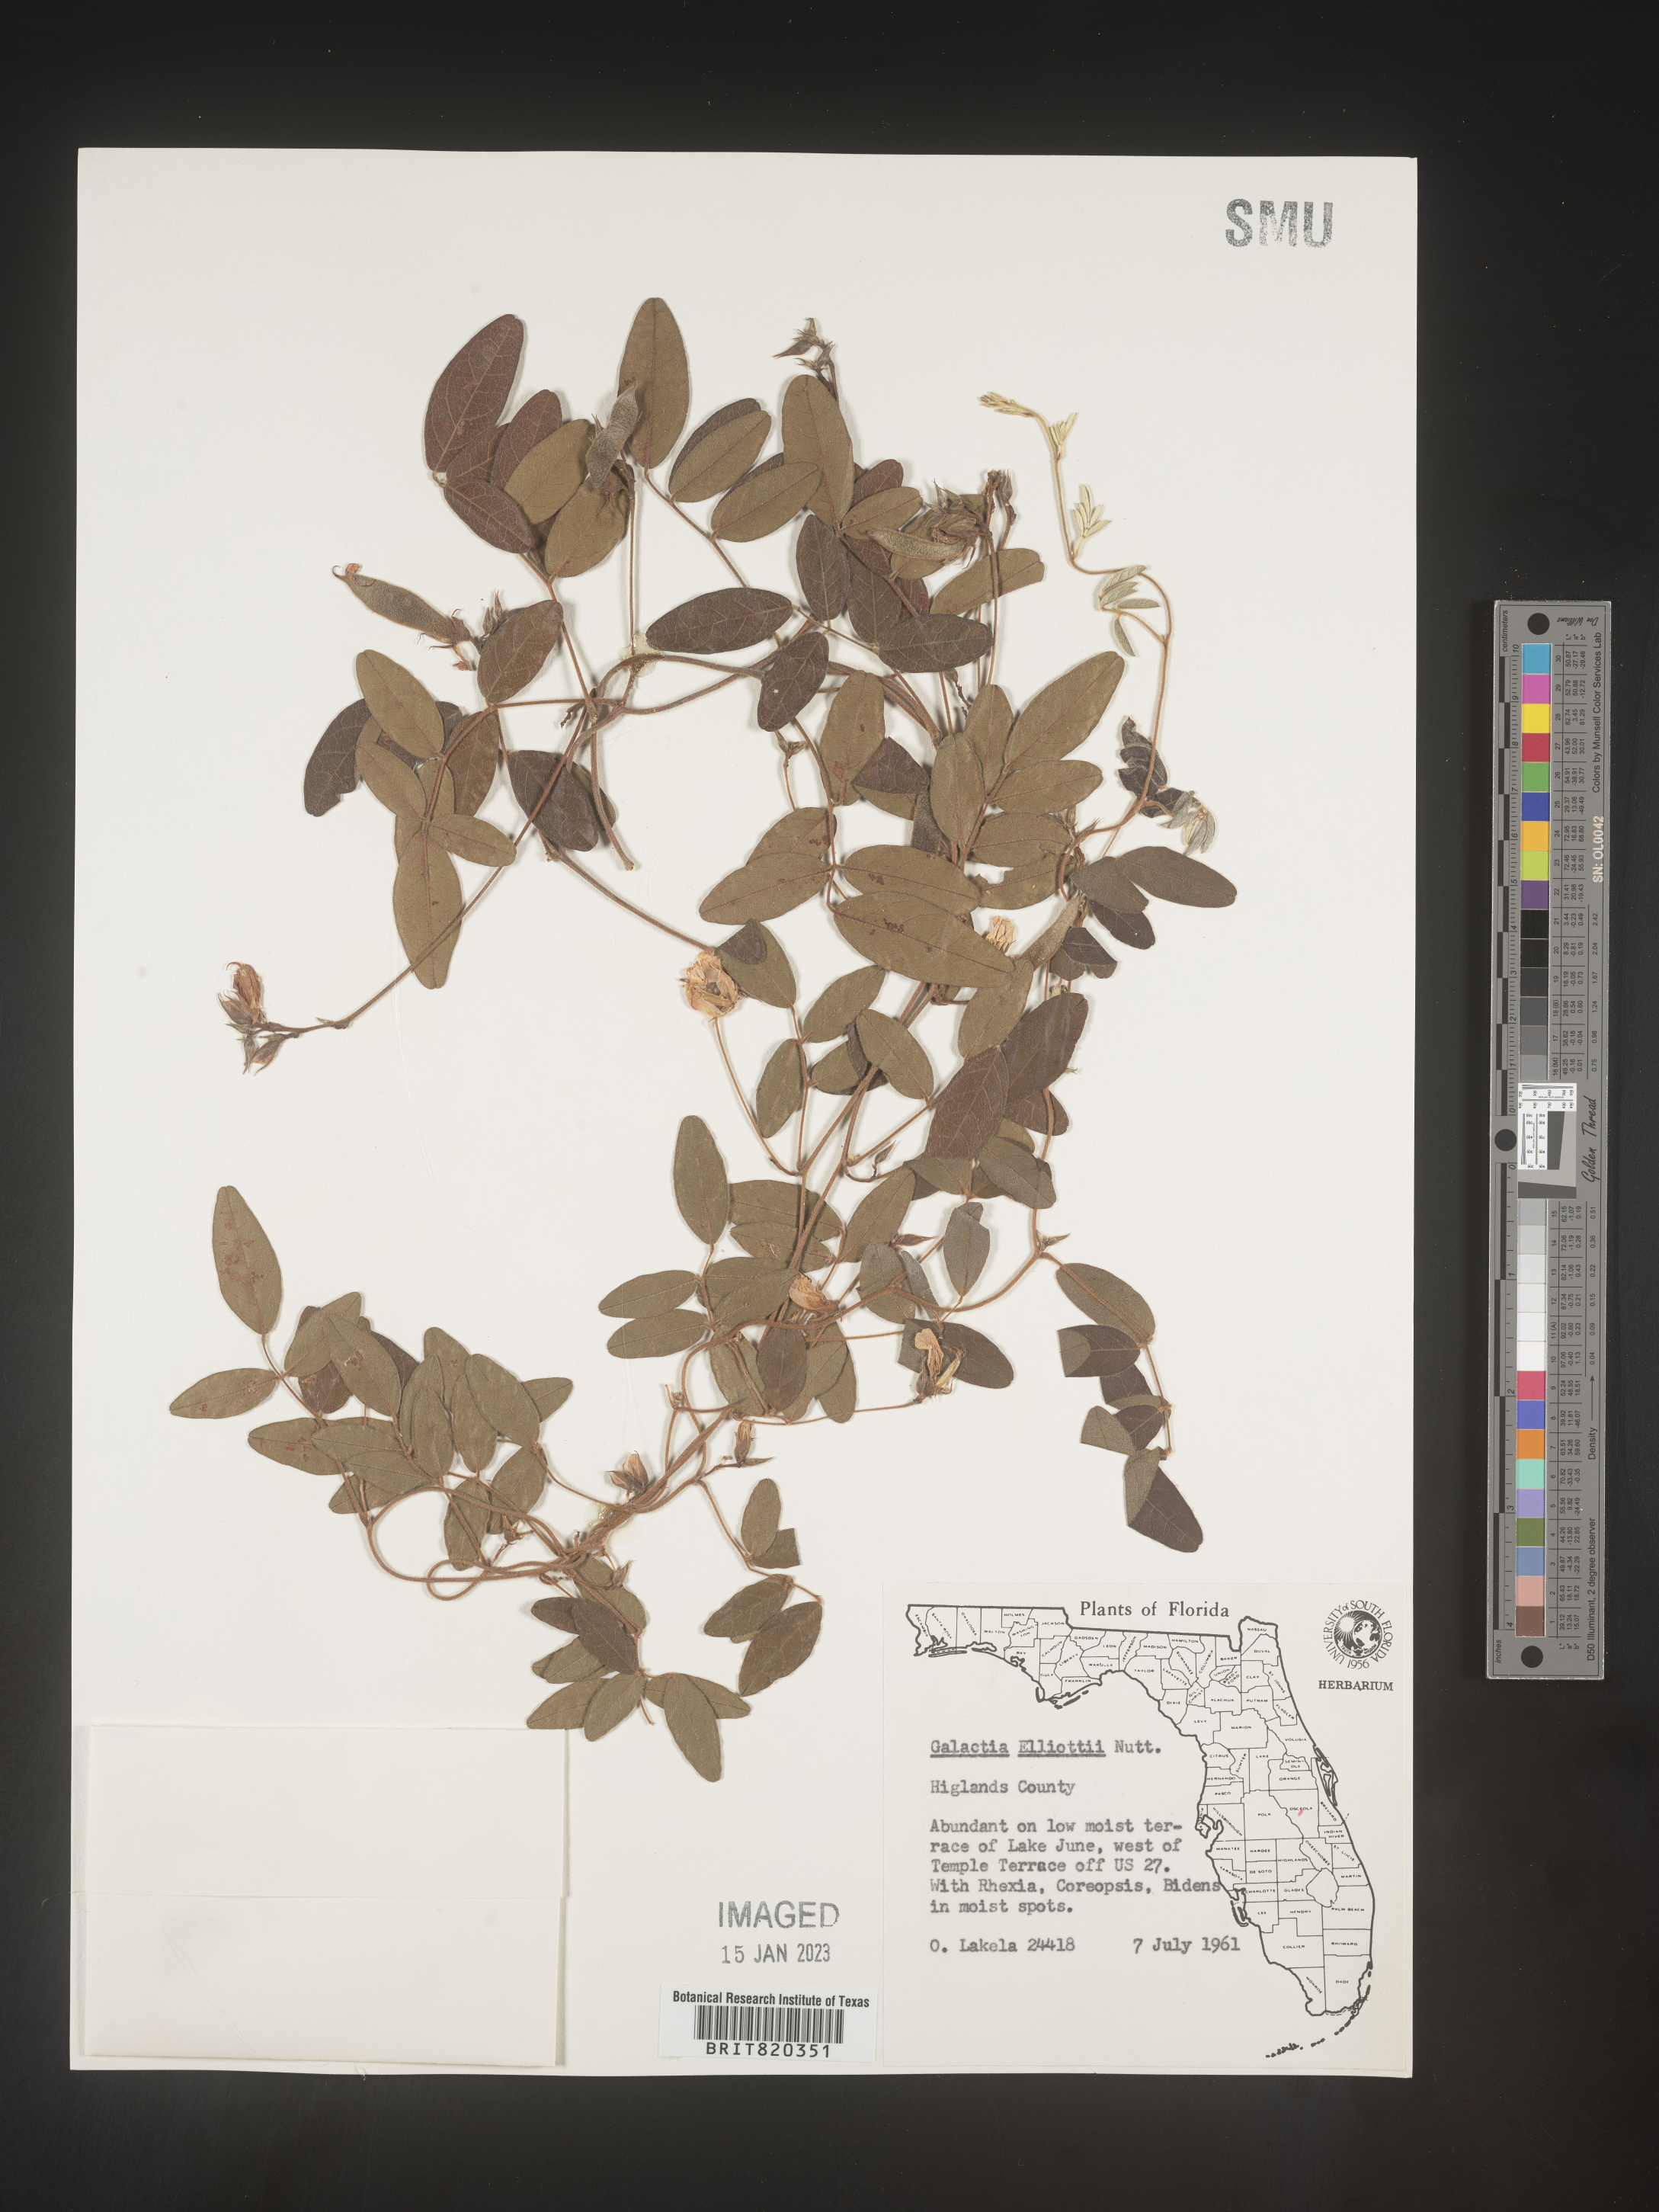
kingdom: Plantae
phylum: Tracheophyta
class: Magnoliopsida
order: Fabales
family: Fabaceae
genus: Galactia
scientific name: Galactia elliottii
